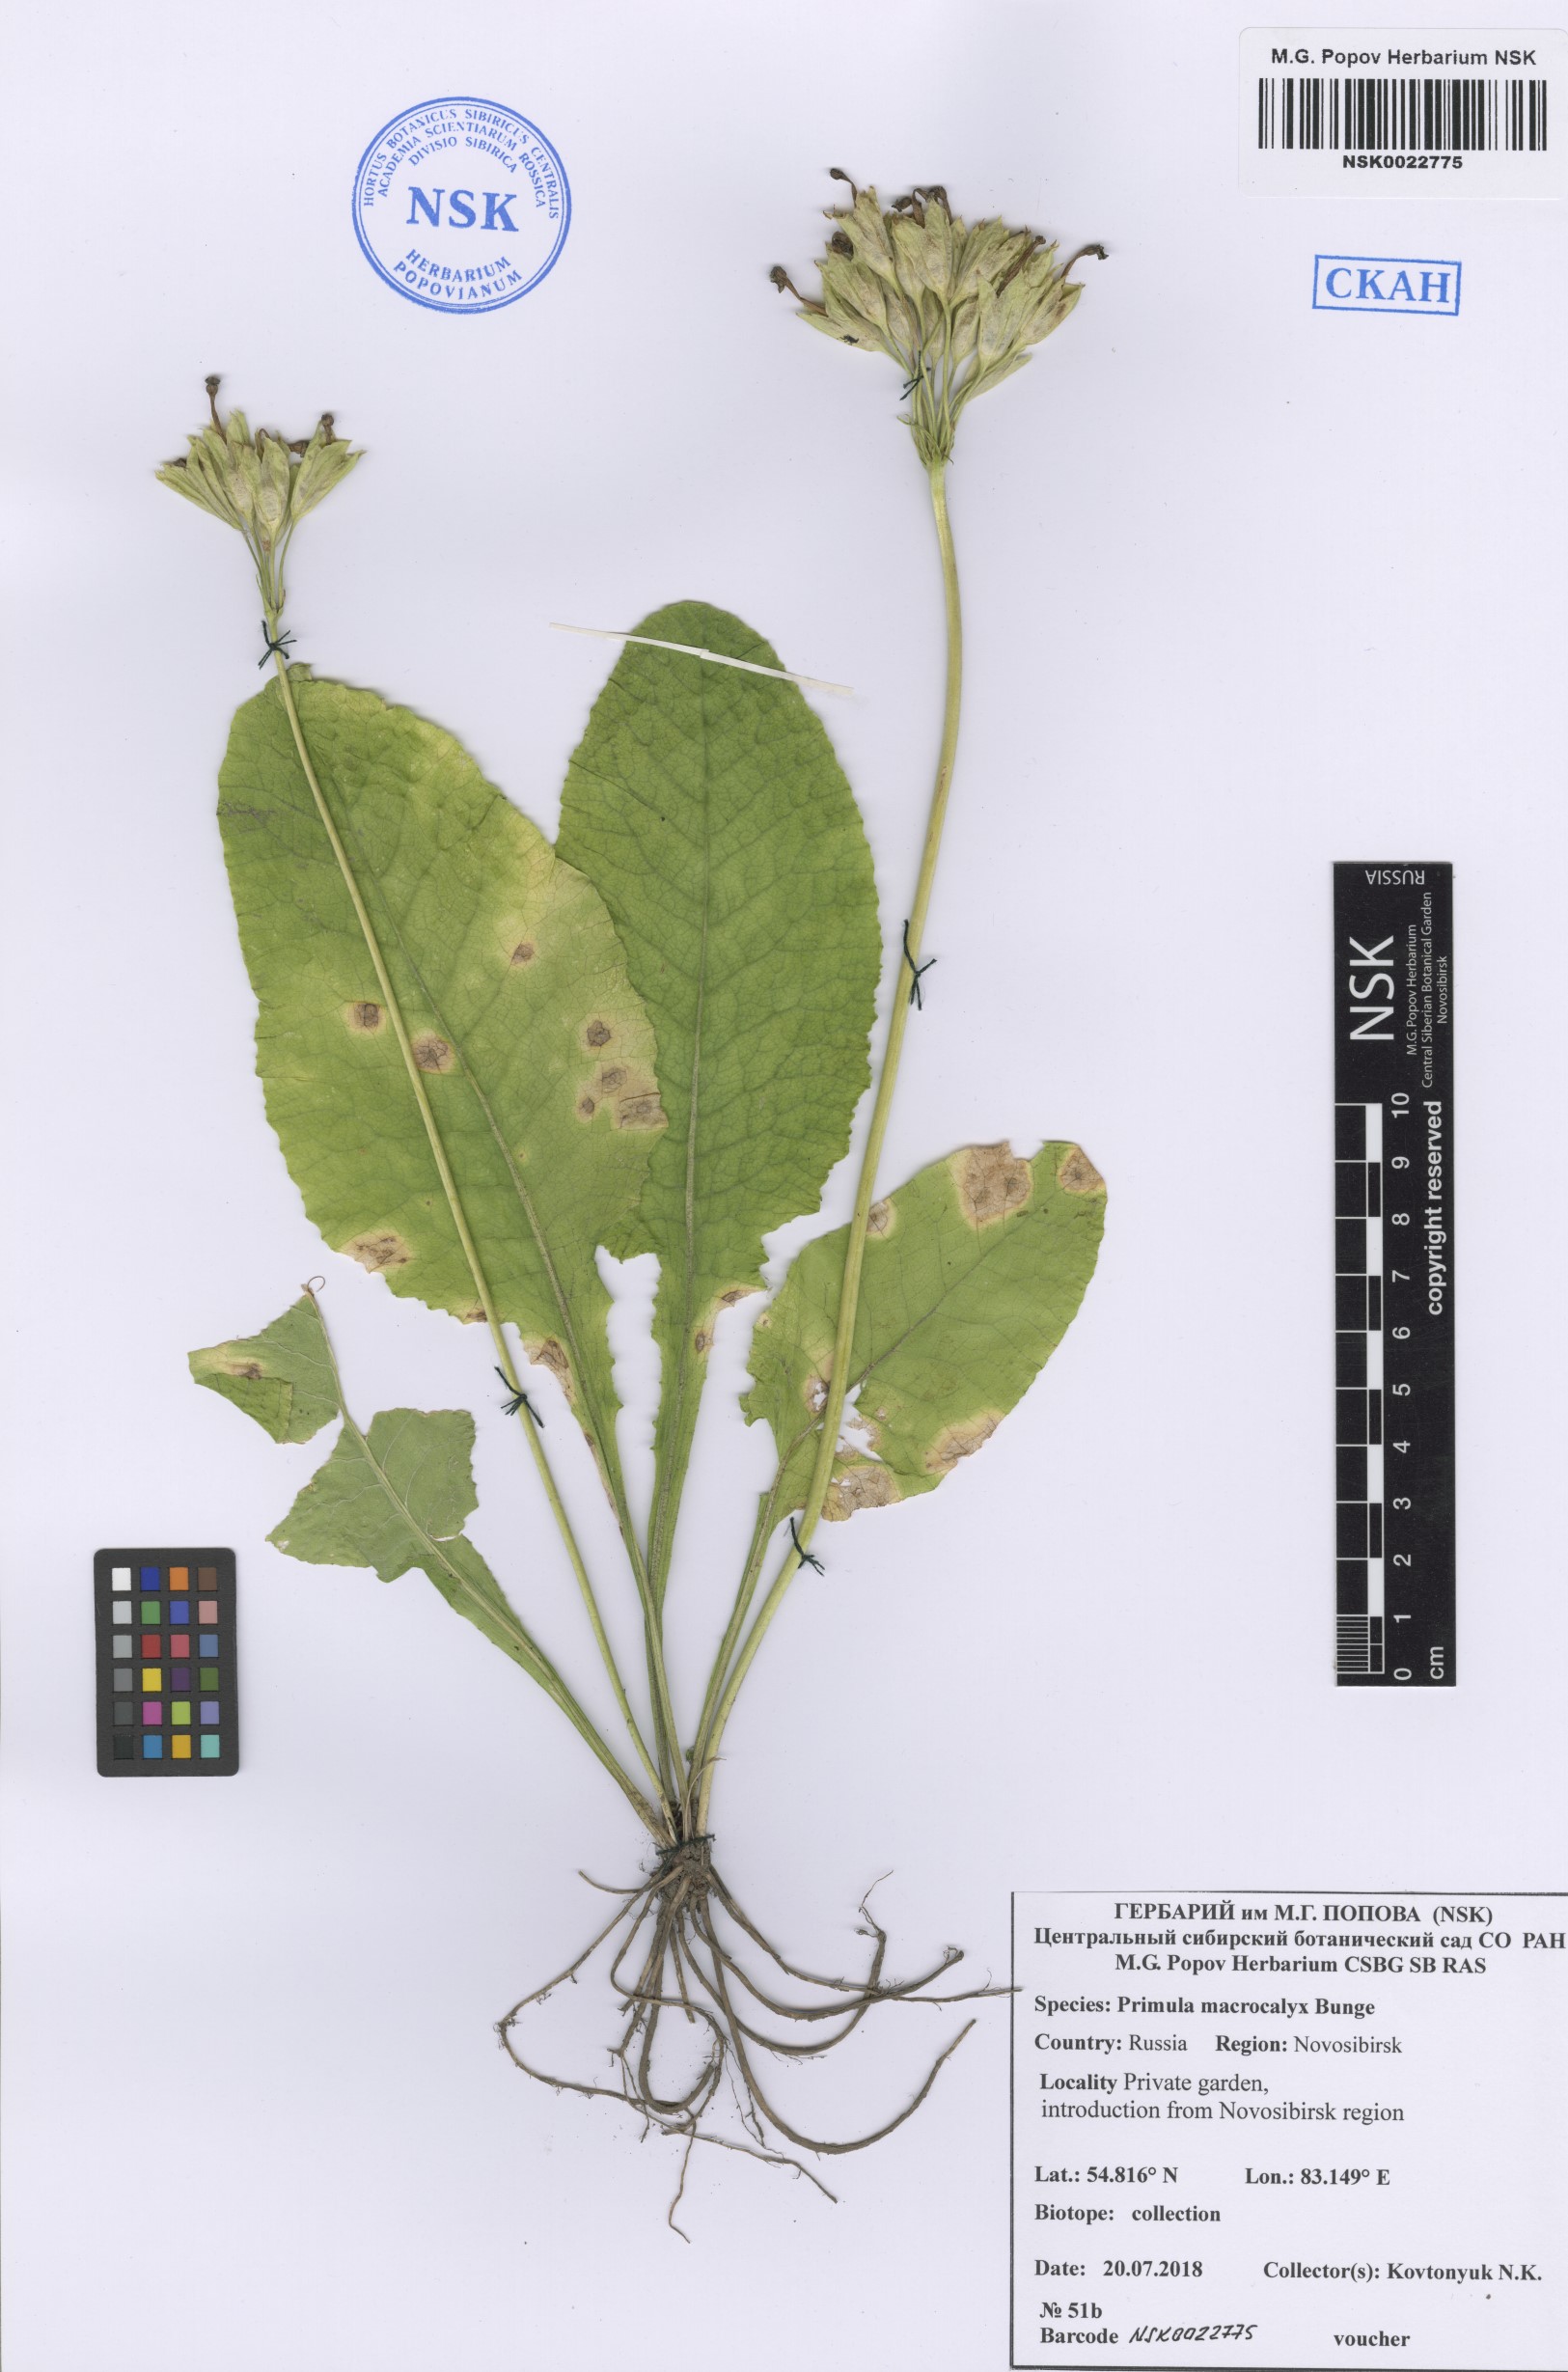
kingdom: Plantae
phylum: Tracheophyta
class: Magnoliopsida
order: Ericales
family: Primulaceae
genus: Primula
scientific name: Primula veris
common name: Cowslip
